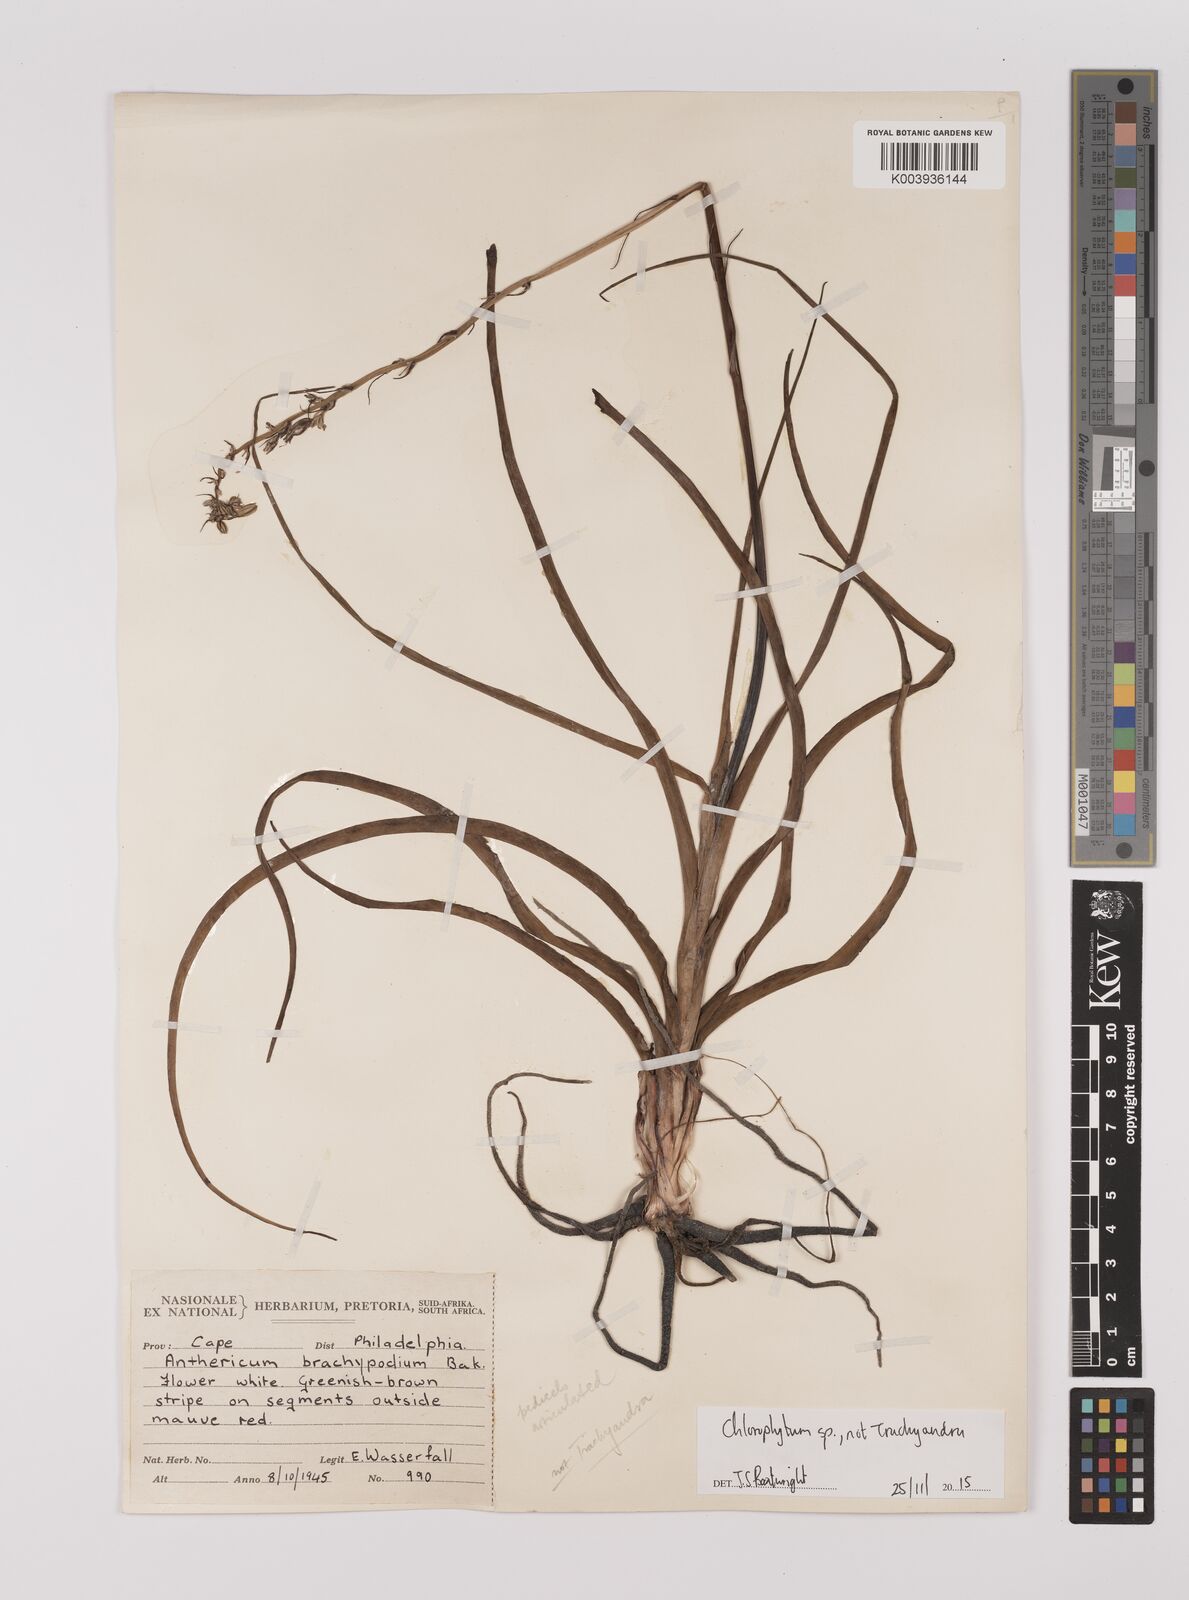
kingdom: Plantae
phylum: Tracheophyta
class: Liliopsida
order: Asparagales
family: Asparagaceae
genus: Chlorophytum
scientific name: Chlorophytum
